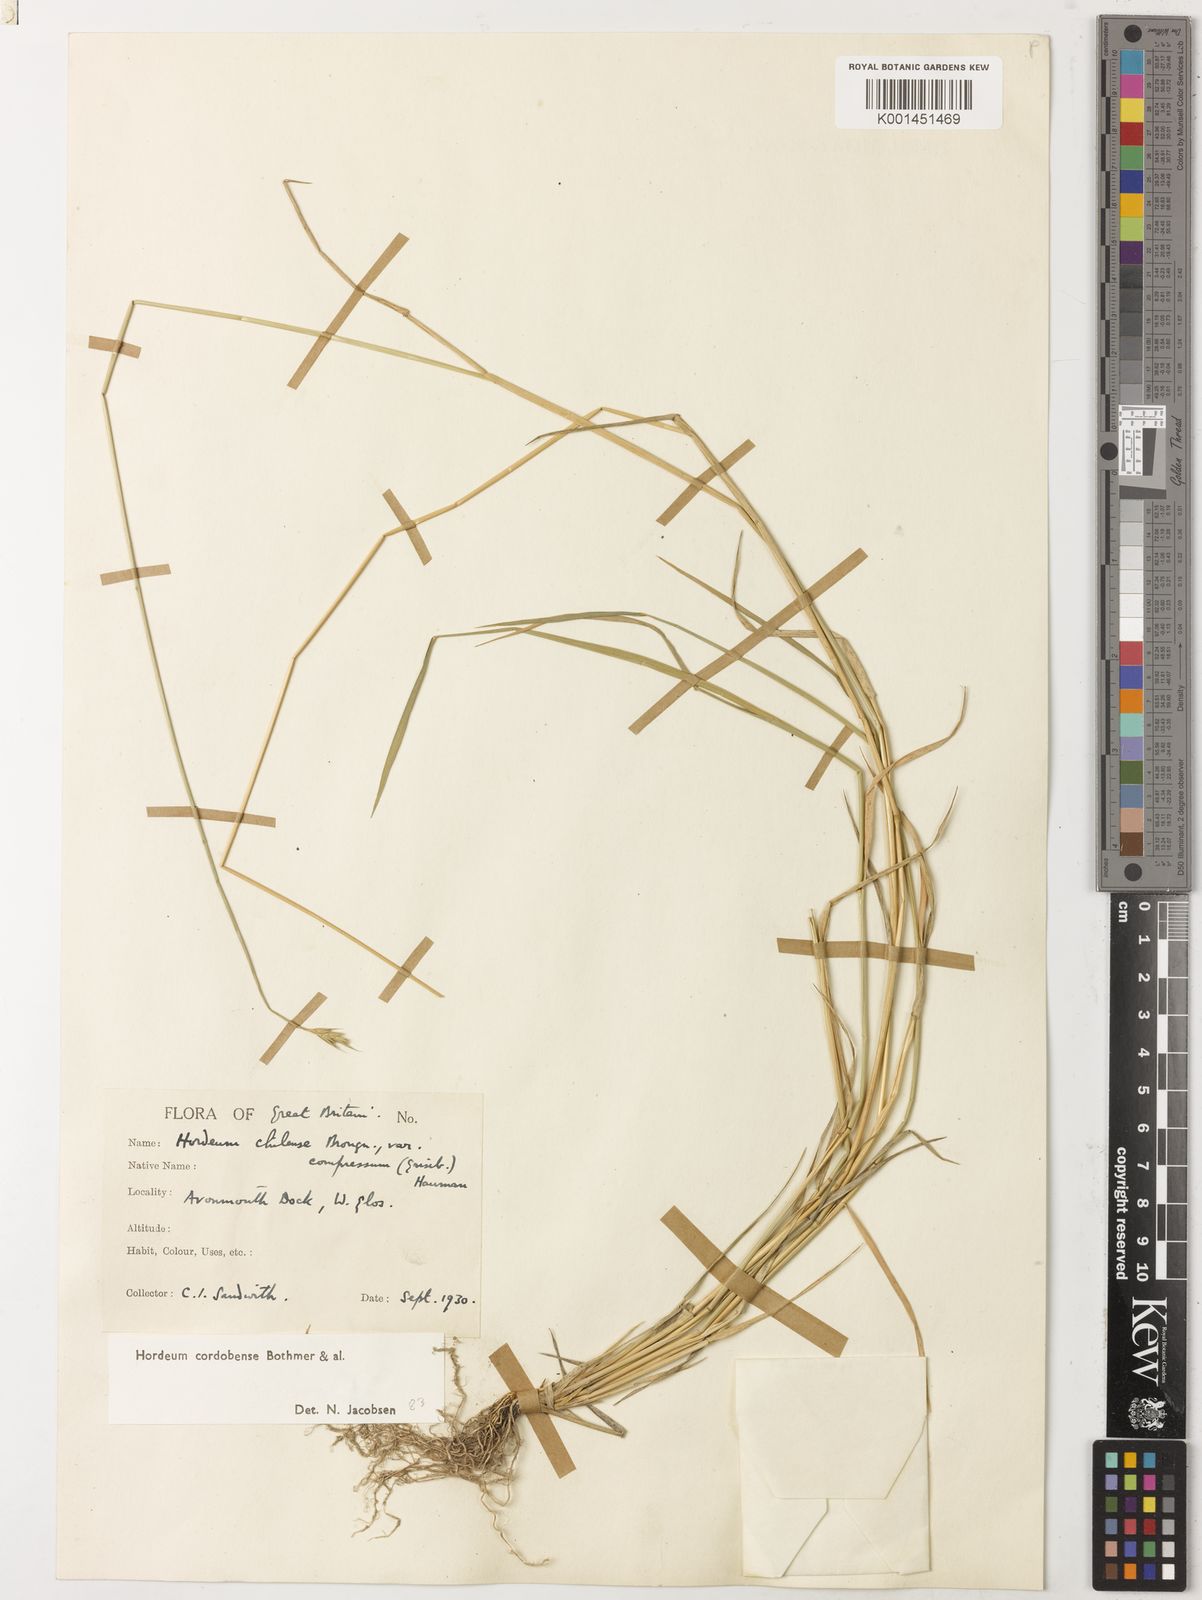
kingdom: Plantae
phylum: Tracheophyta
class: Liliopsida
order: Poales
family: Poaceae
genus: Hordeum
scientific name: Hordeum cordobense
